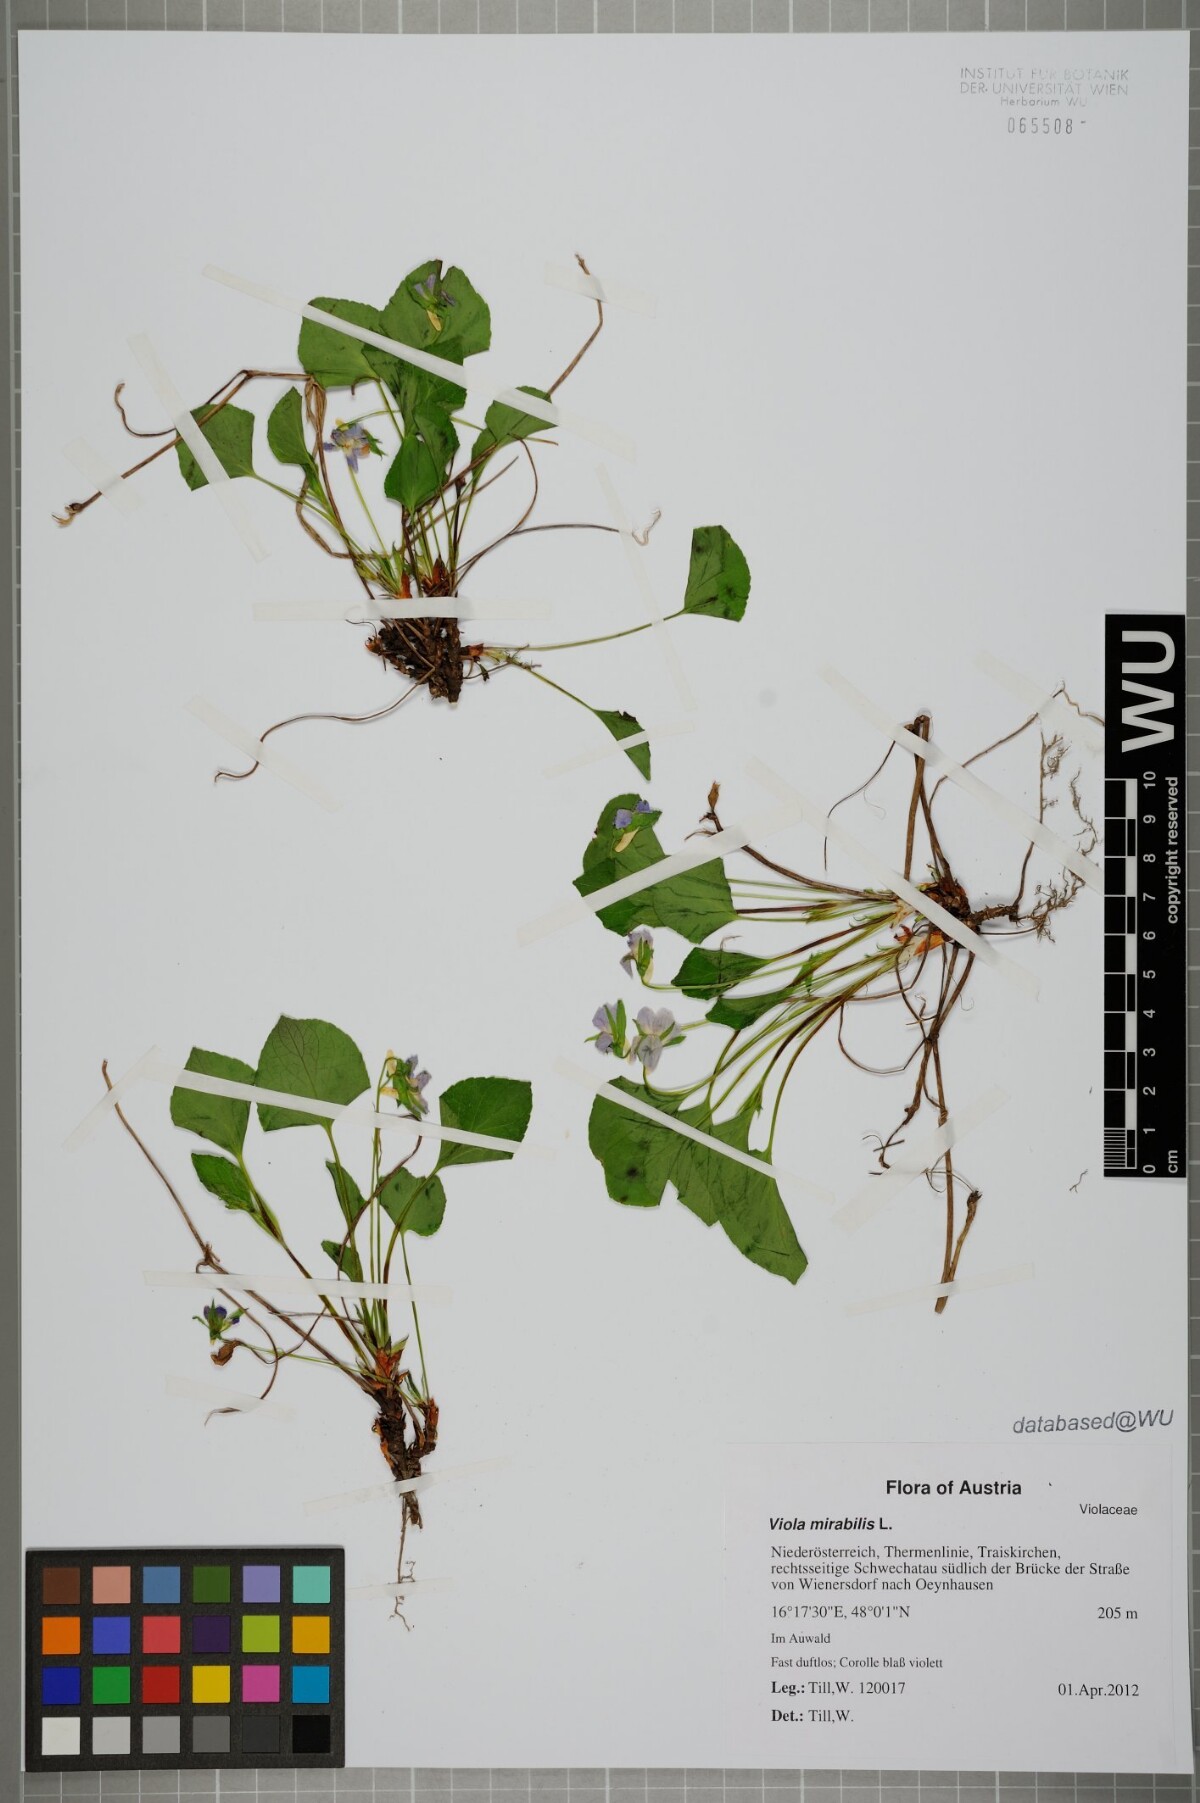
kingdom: Plantae
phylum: Tracheophyta
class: Magnoliopsida
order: Malpighiales
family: Violaceae
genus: Viola
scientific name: Viola mirabilis
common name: Wonder violet
